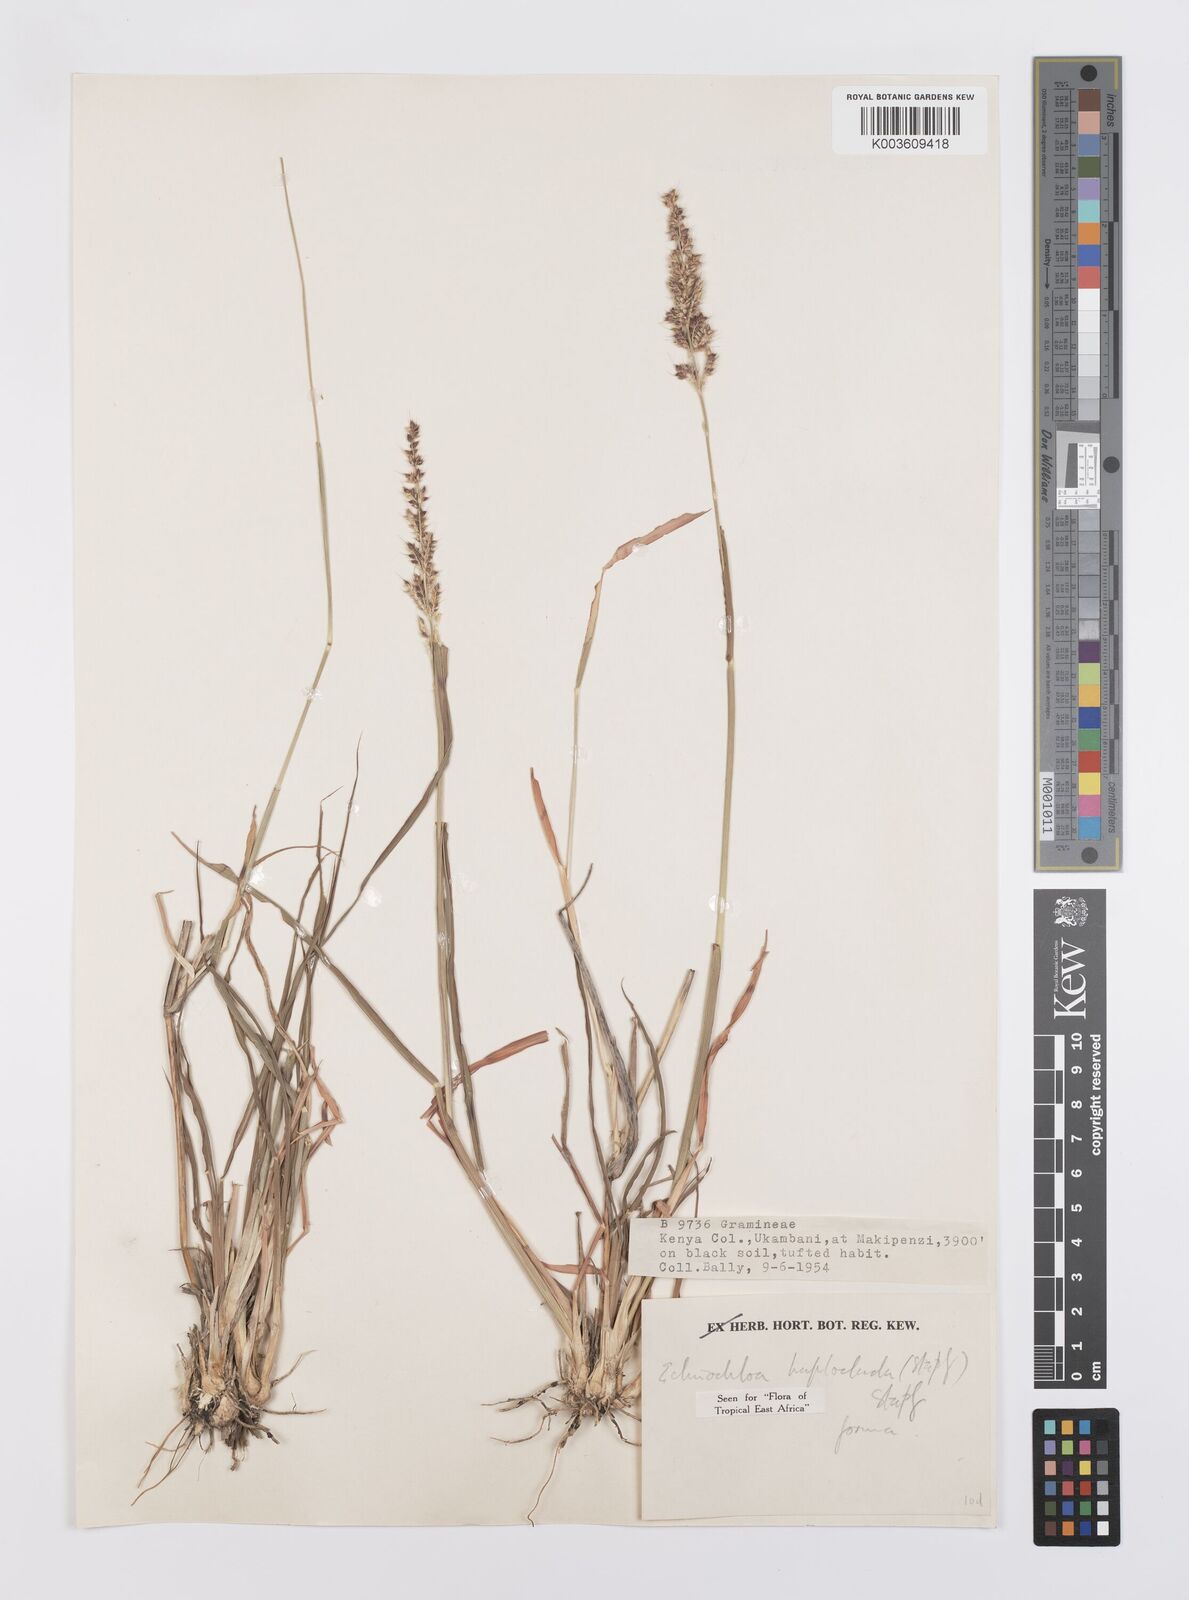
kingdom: Plantae
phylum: Tracheophyta
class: Liliopsida
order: Poales
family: Poaceae
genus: Echinochloa
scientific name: Echinochloa haploclada
